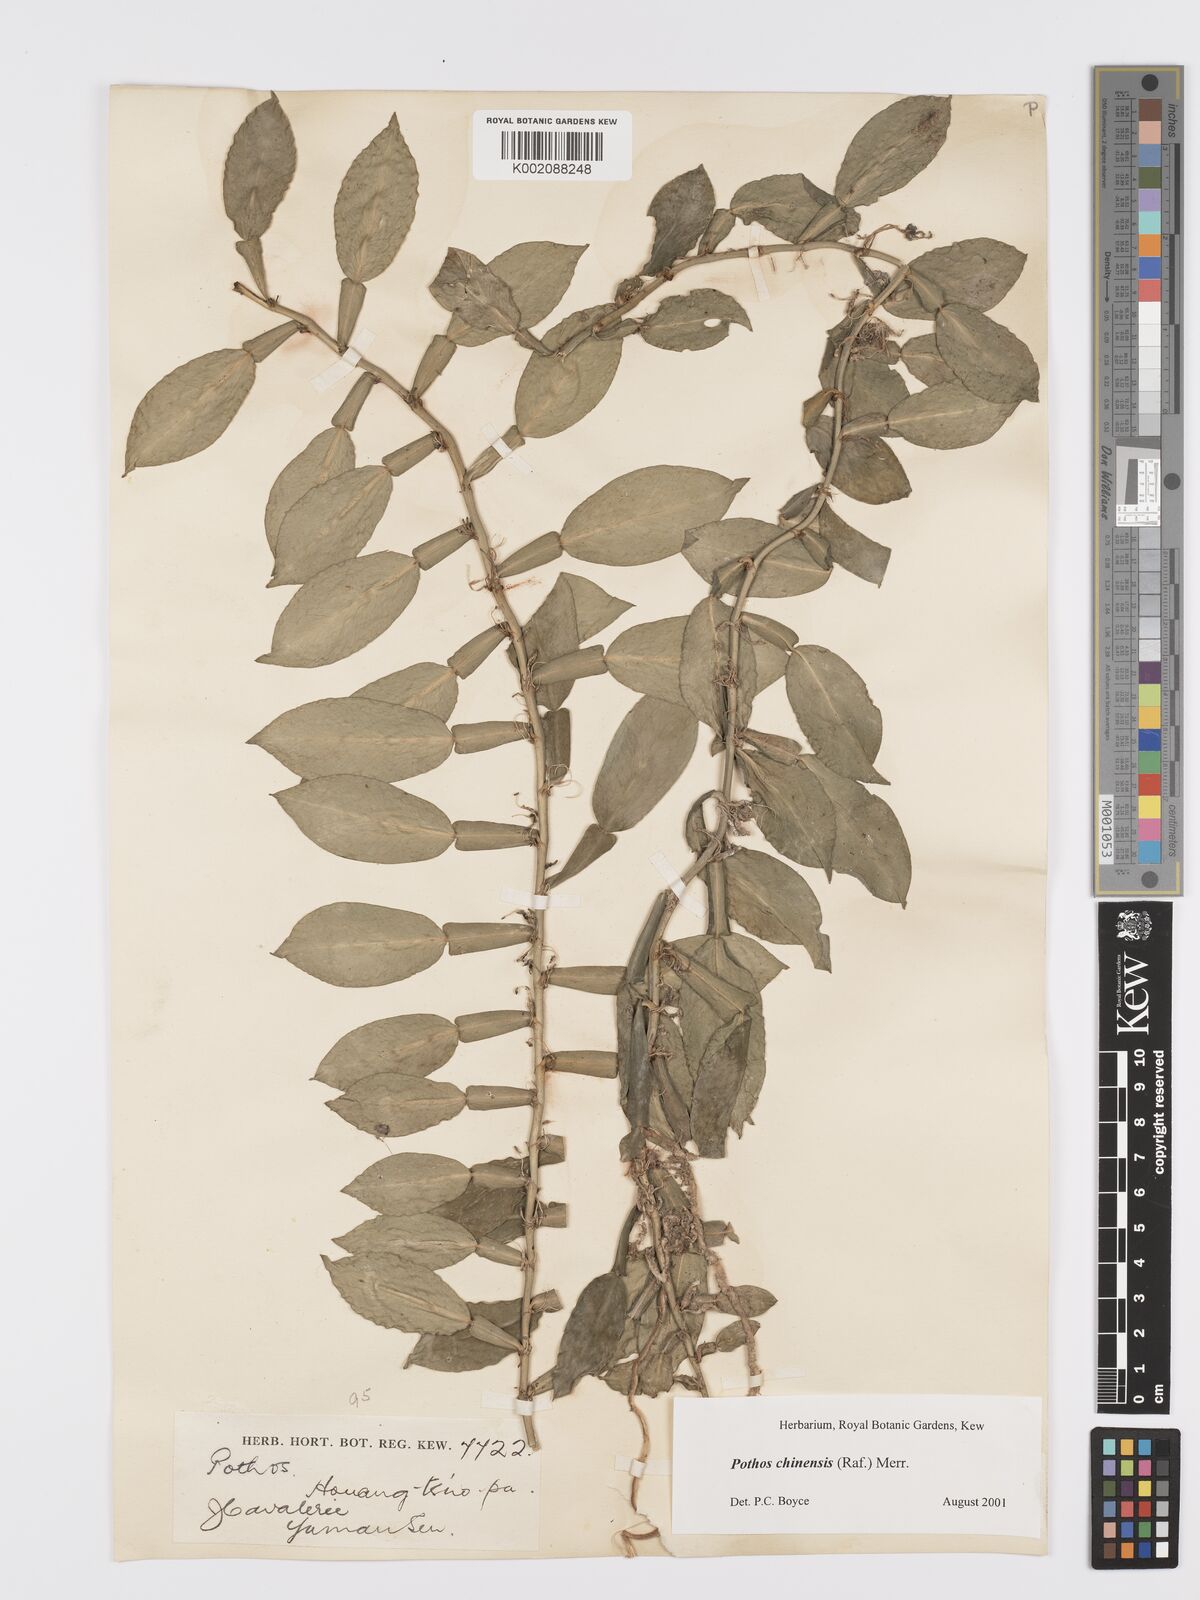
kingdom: Plantae
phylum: Tracheophyta
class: Liliopsida
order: Alismatales
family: Araceae
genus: Pothos
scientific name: Pothos chinensis
